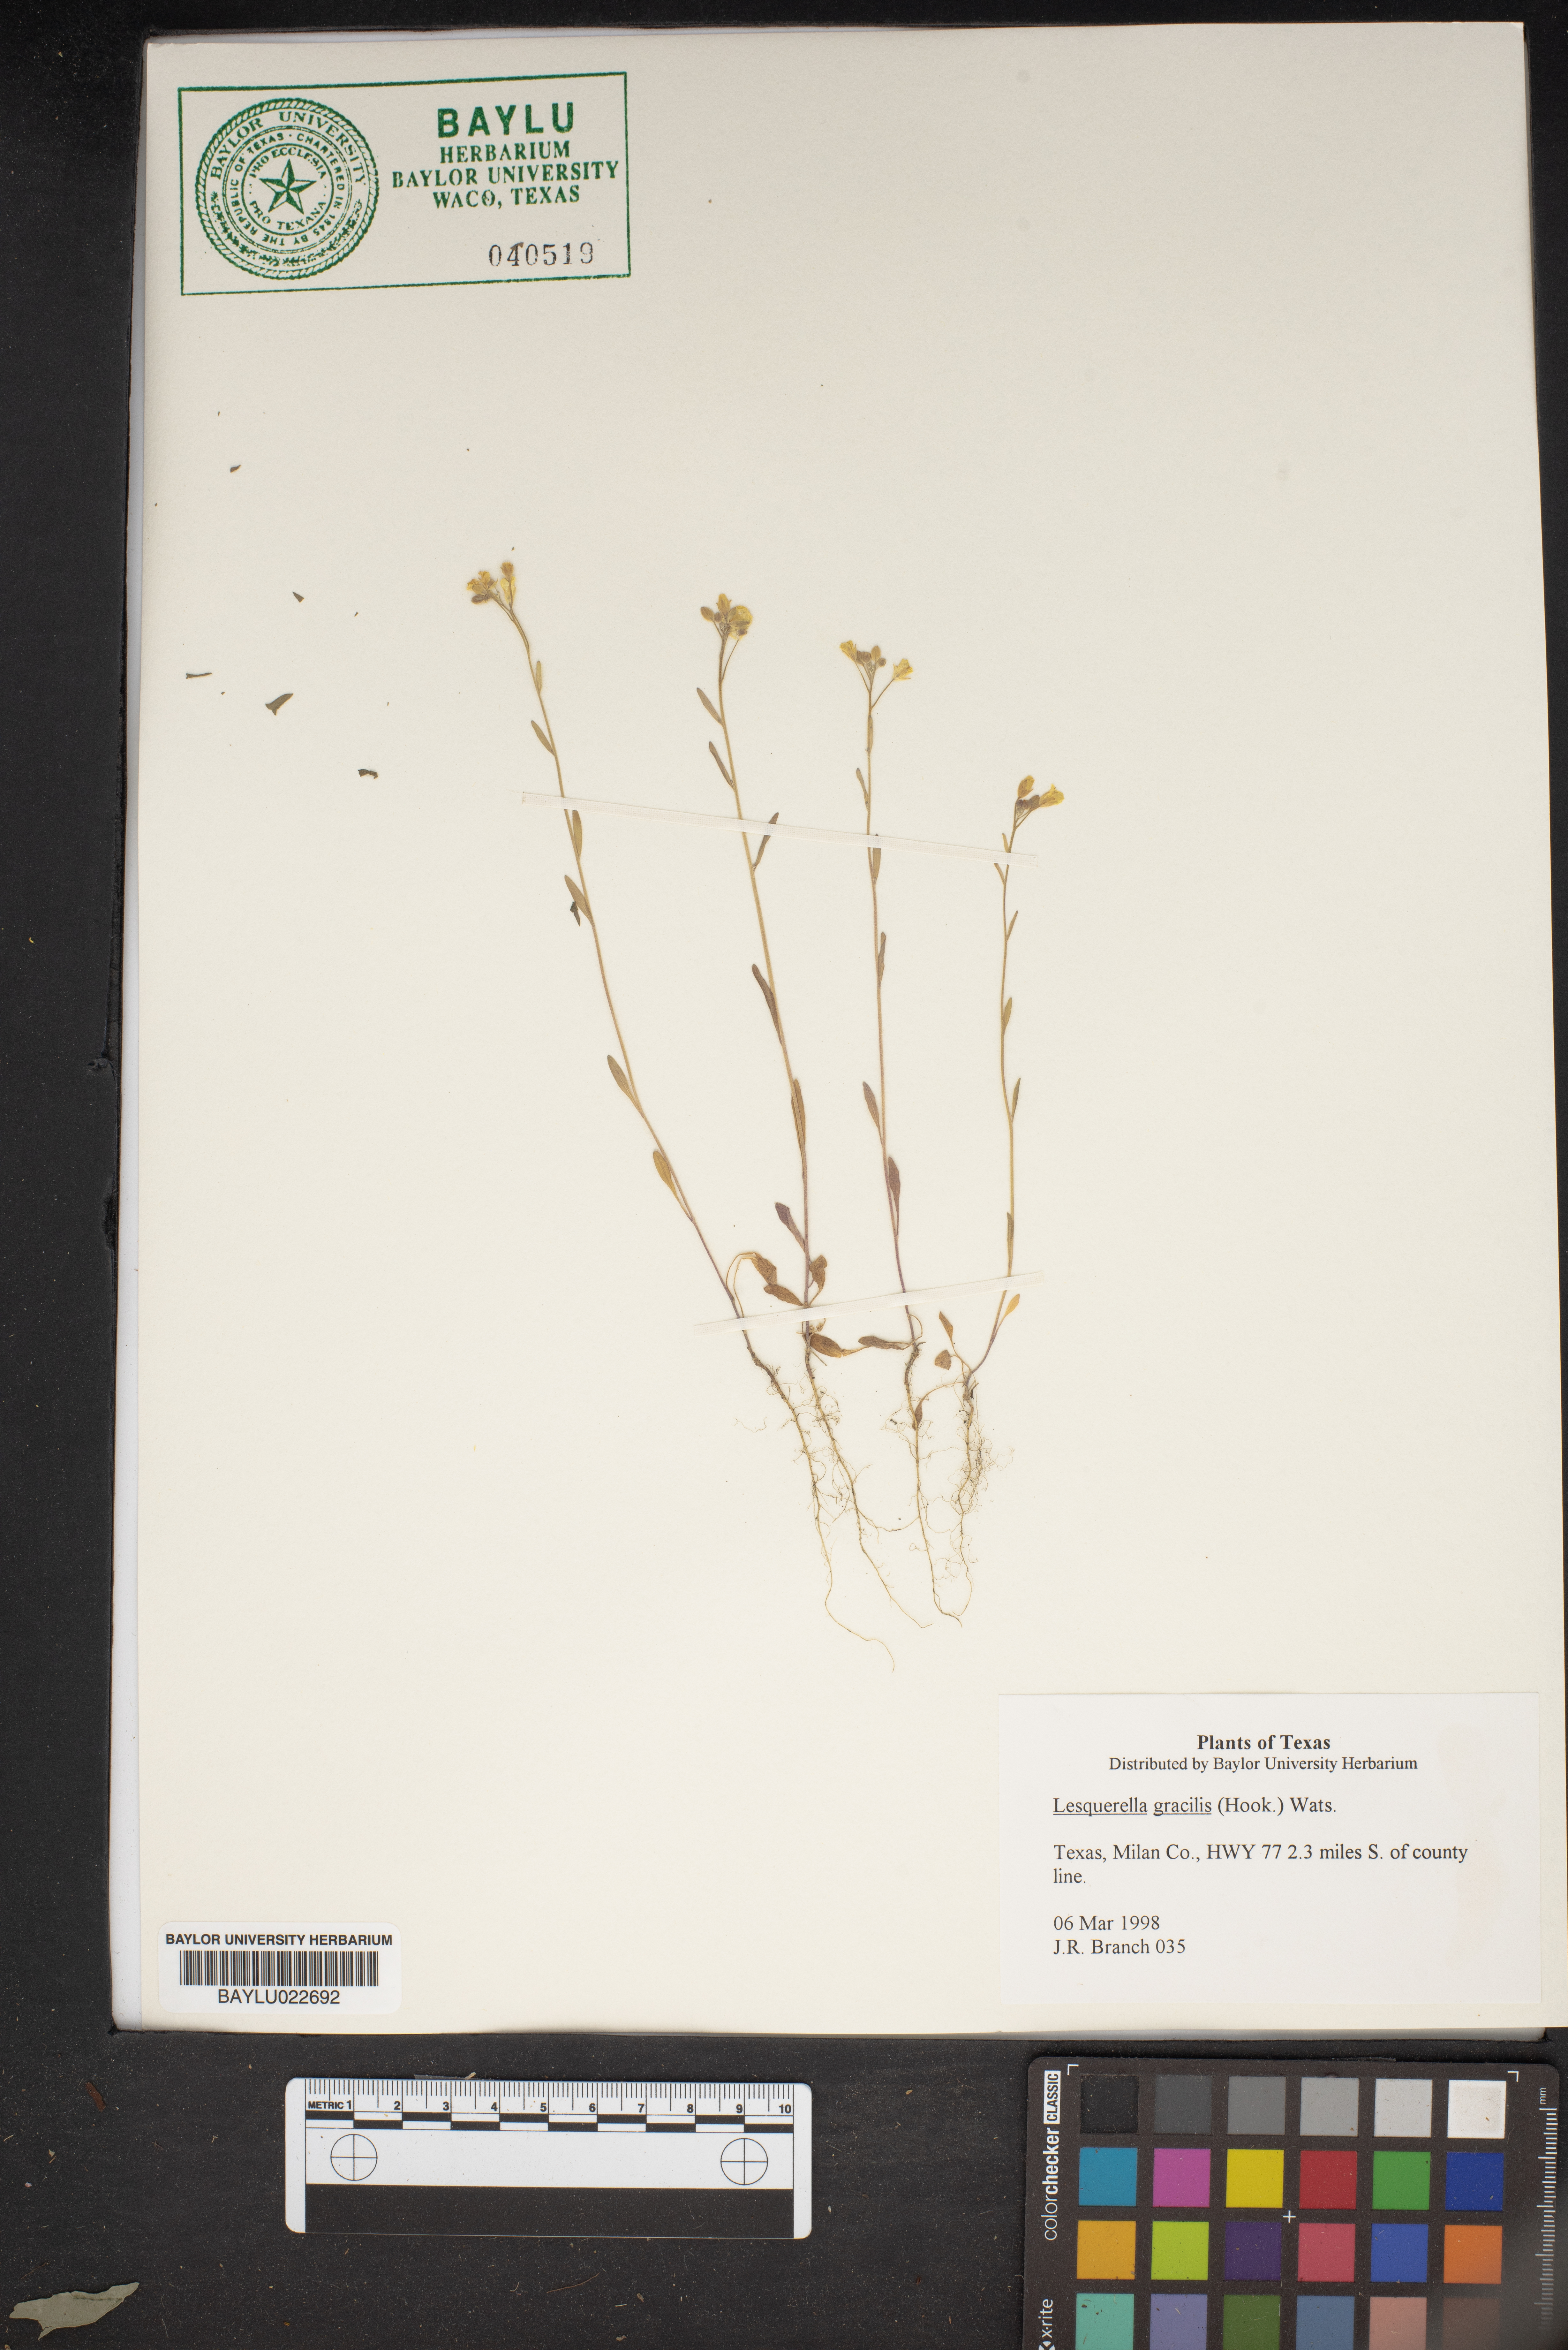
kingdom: Plantae
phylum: Tracheophyta
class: Magnoliopsida
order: Brassicales
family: Brassicaceae
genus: Physaria
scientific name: Physaria gracilis
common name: Spreading bladderpod
